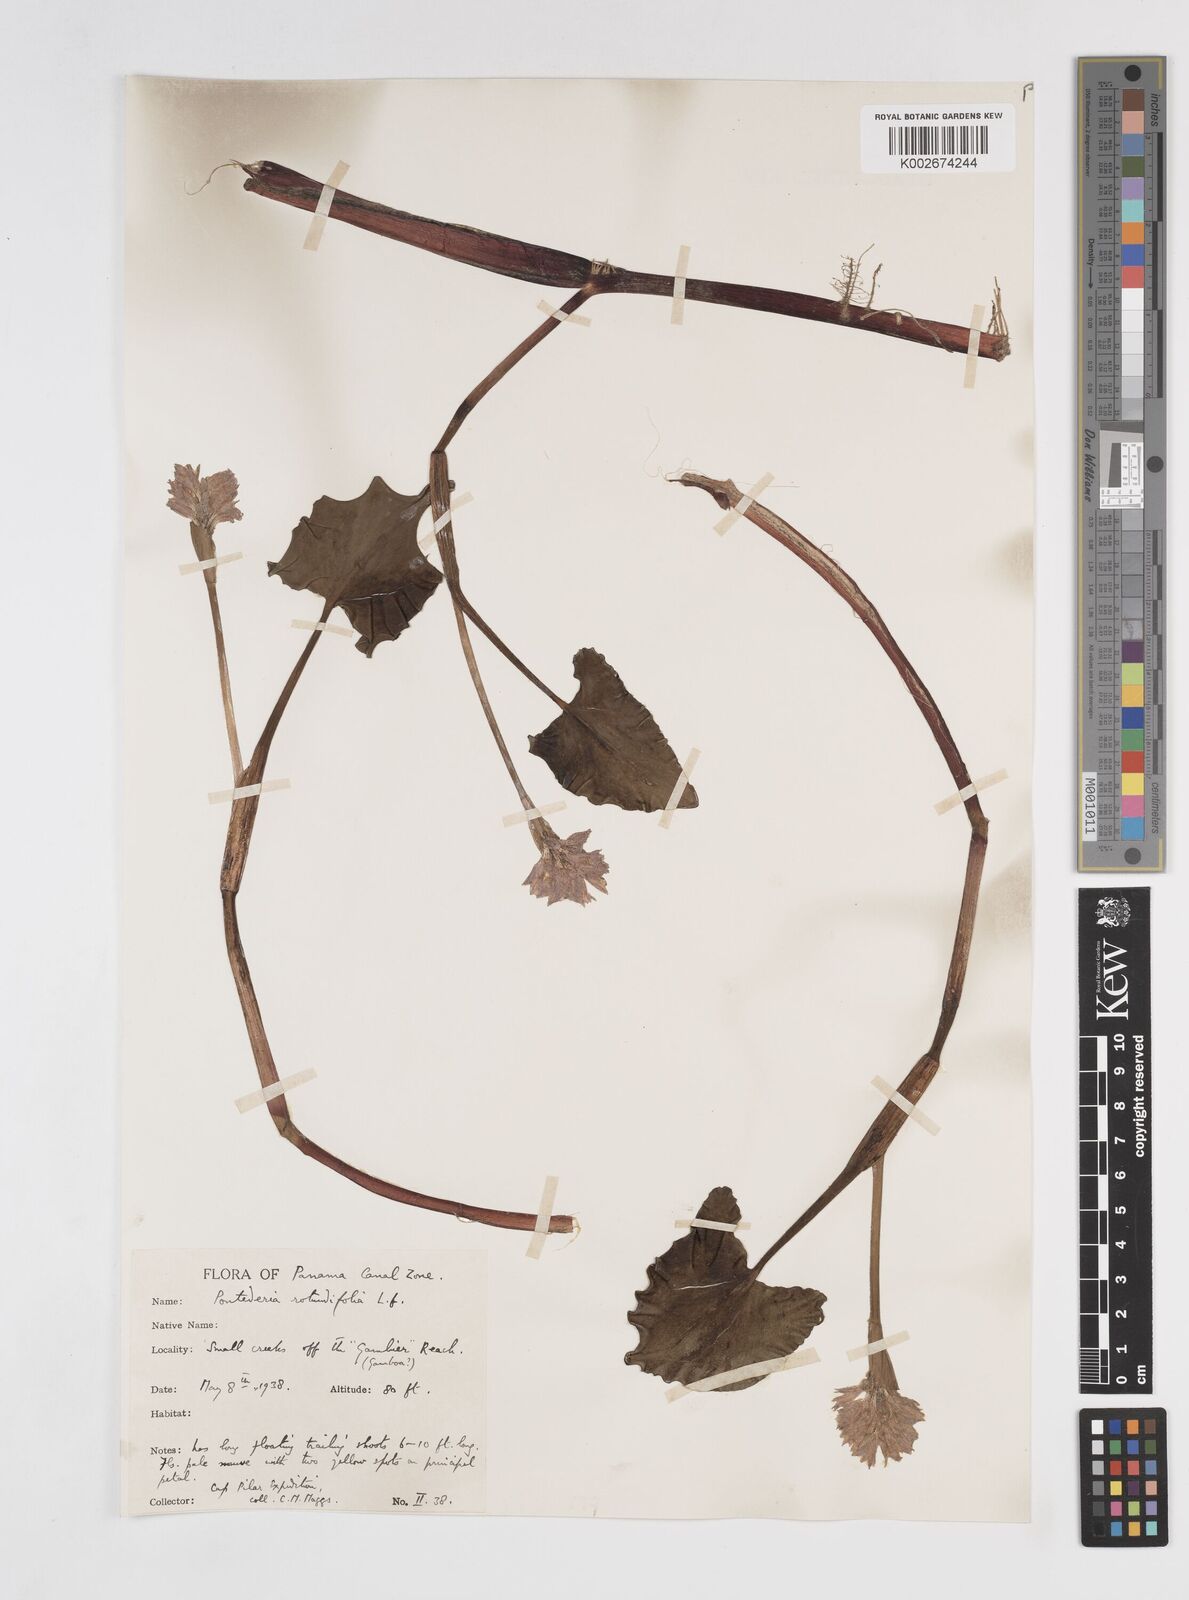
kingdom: Plantae
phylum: Tracheophyta
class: Liliopsida
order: Commelinales
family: Pontederiaceae
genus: Pontederia
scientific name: Pontederia rotundifolia
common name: Tropical pickerel-weed
